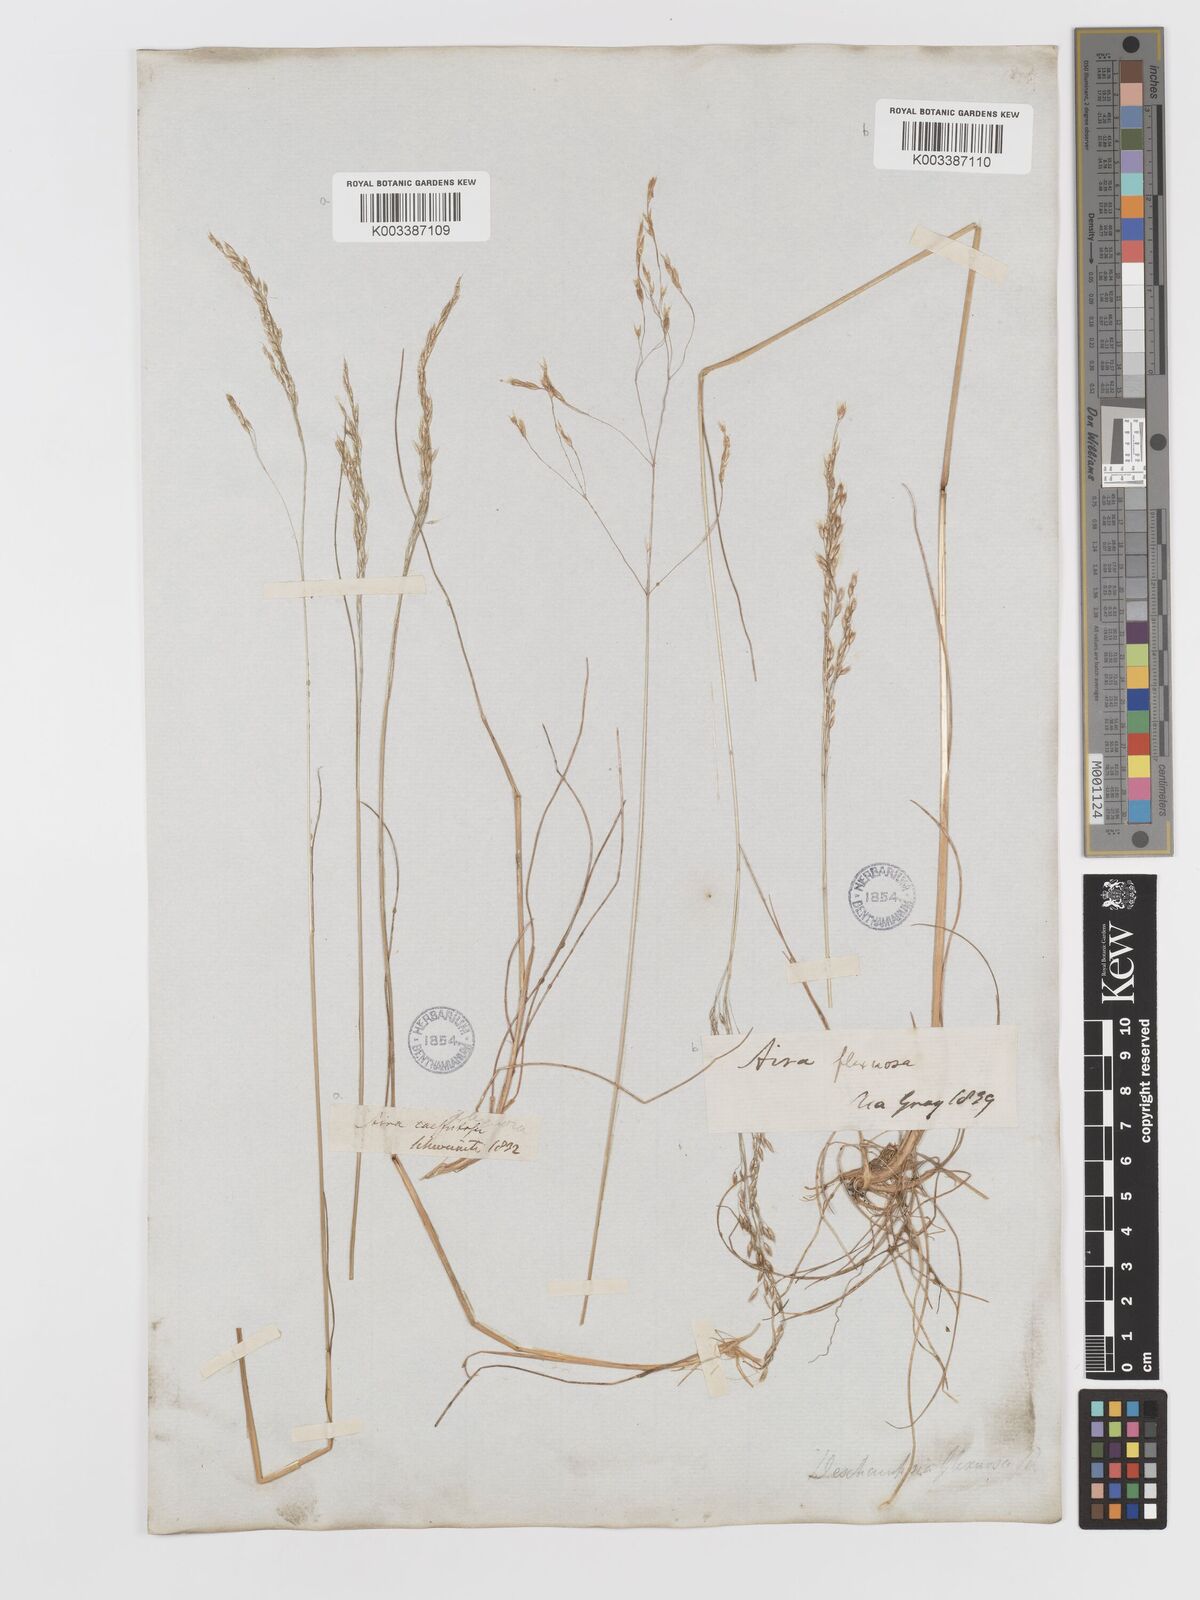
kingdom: Plantae
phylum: Tracheophyta
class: Liliopsida
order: Poales
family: Poaceae
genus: Avenella
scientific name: Avenella flexuosa
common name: Wavy hairgrass
